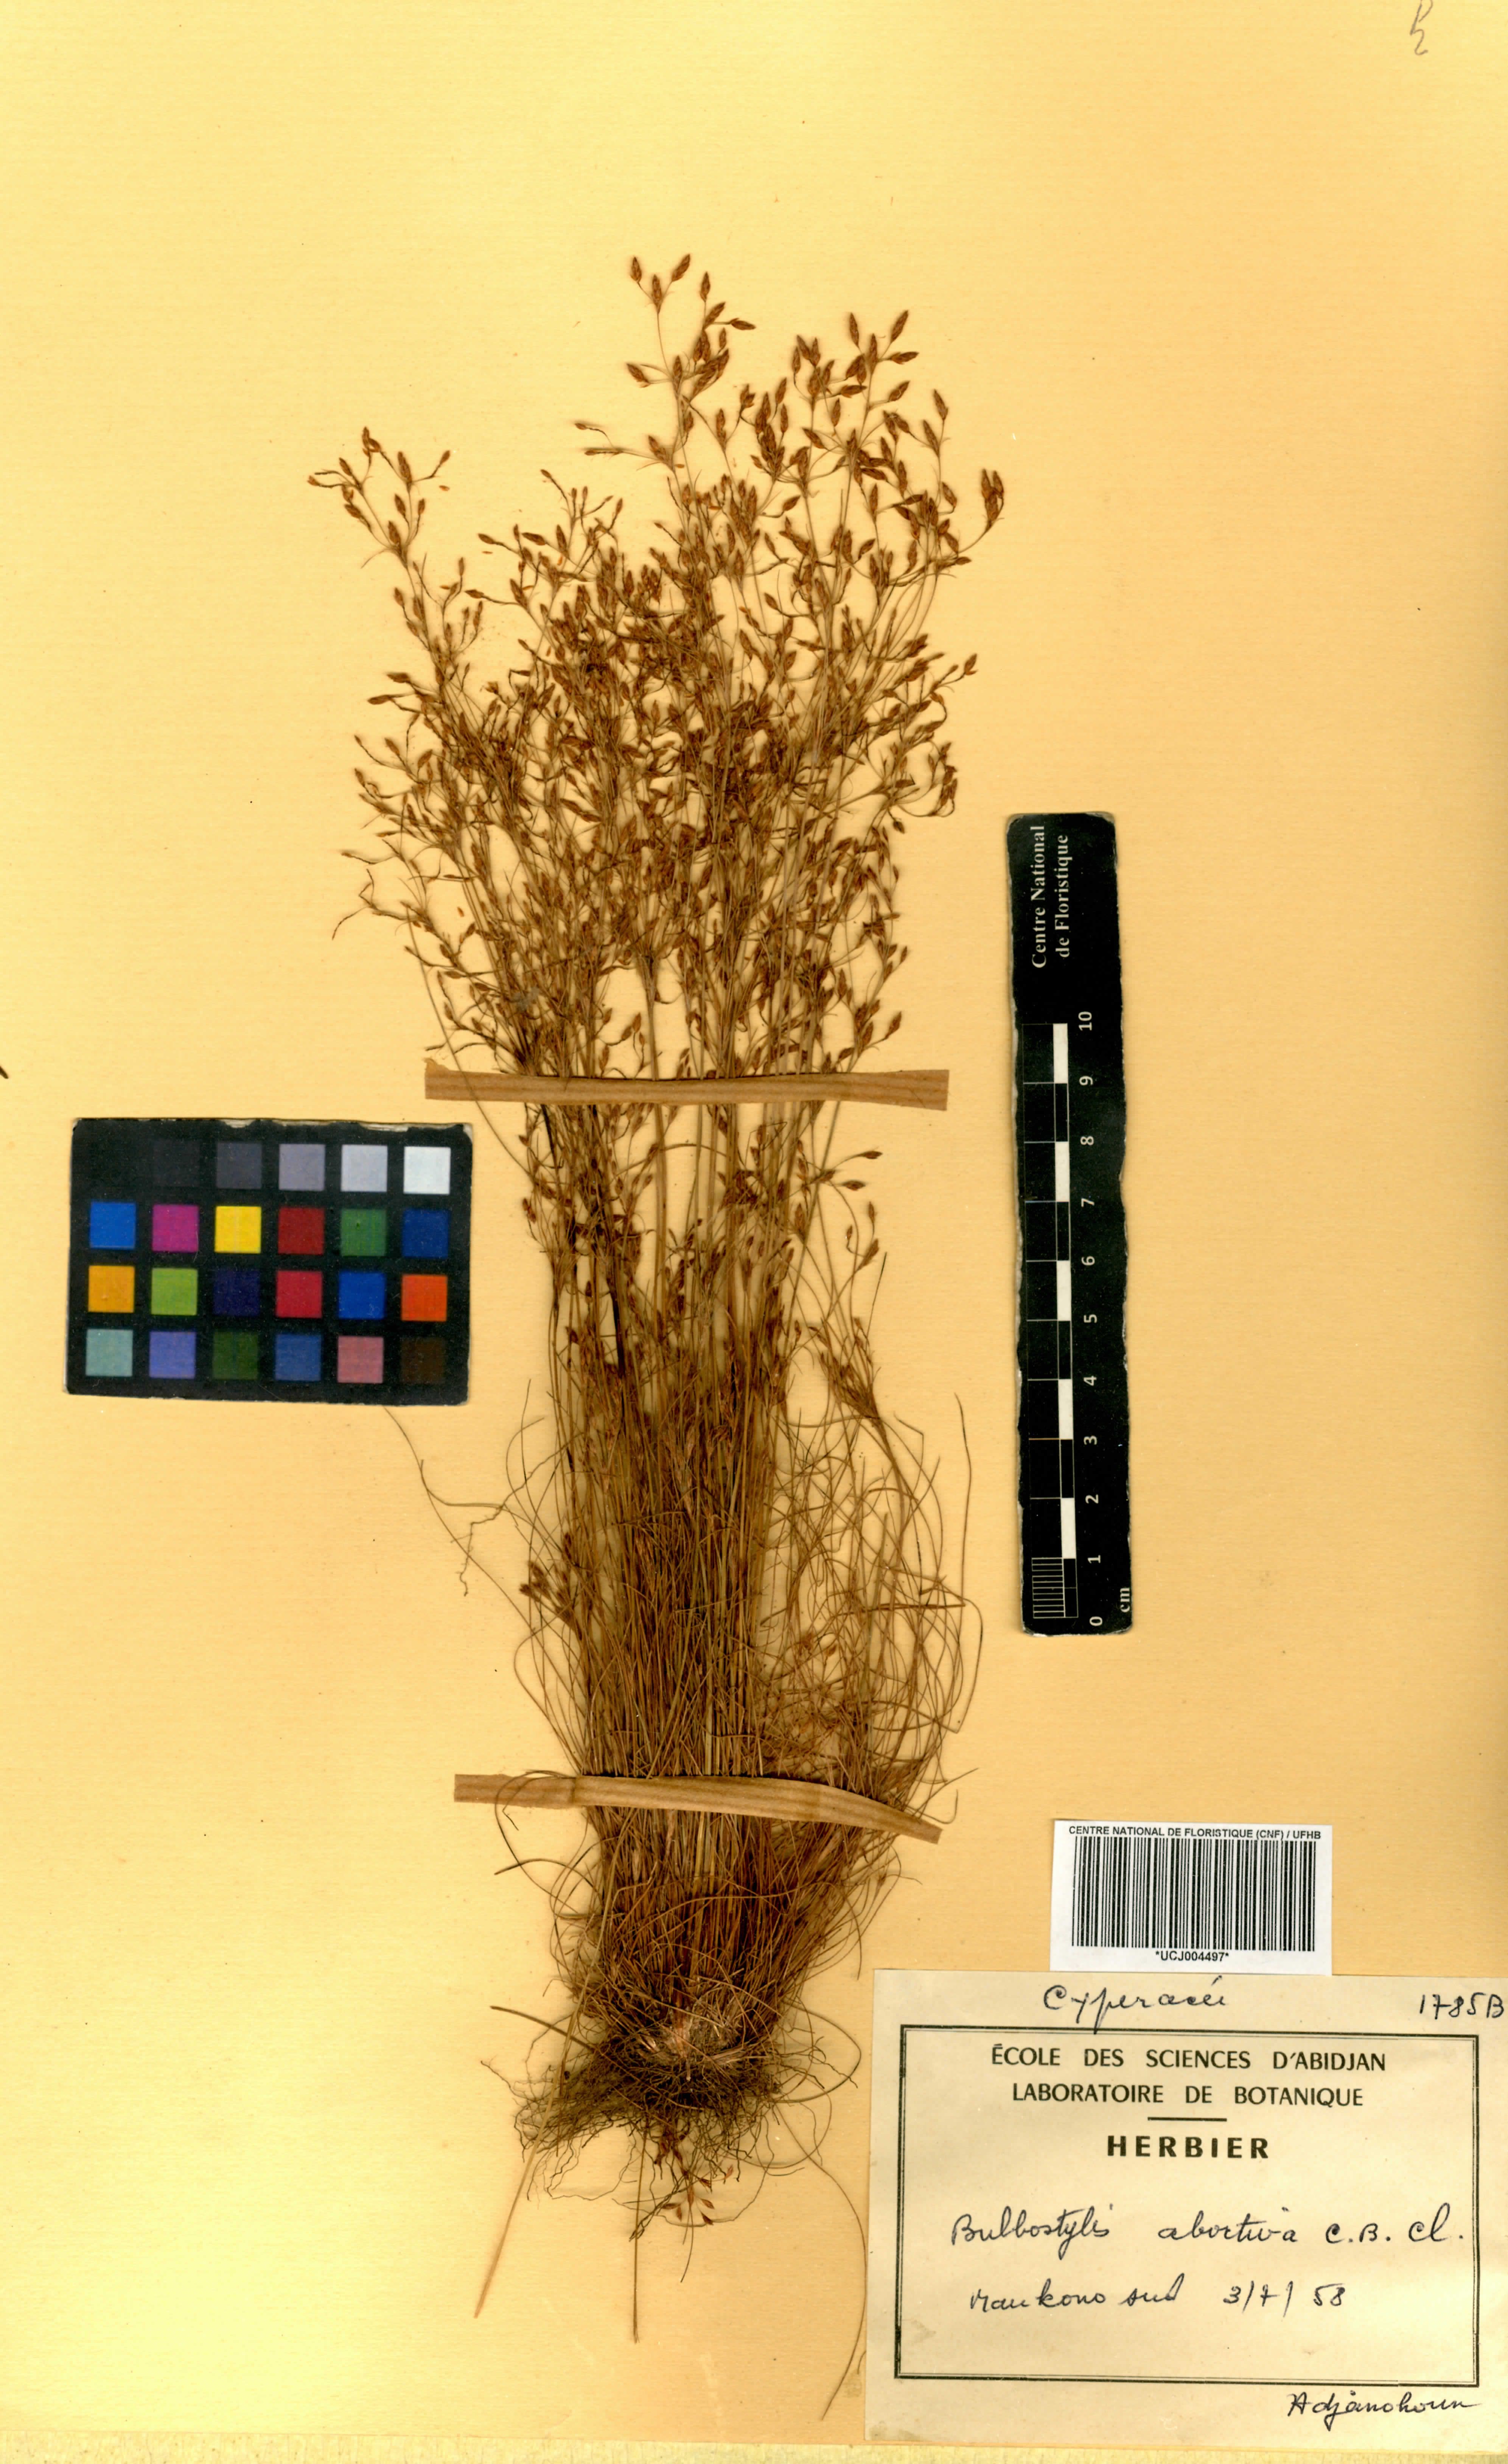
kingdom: Plantae
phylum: Tracheophyta
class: Liliopsida
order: Poales
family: Cyperaceae
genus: Bulbostylis
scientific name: Bulbostylis abortiva
